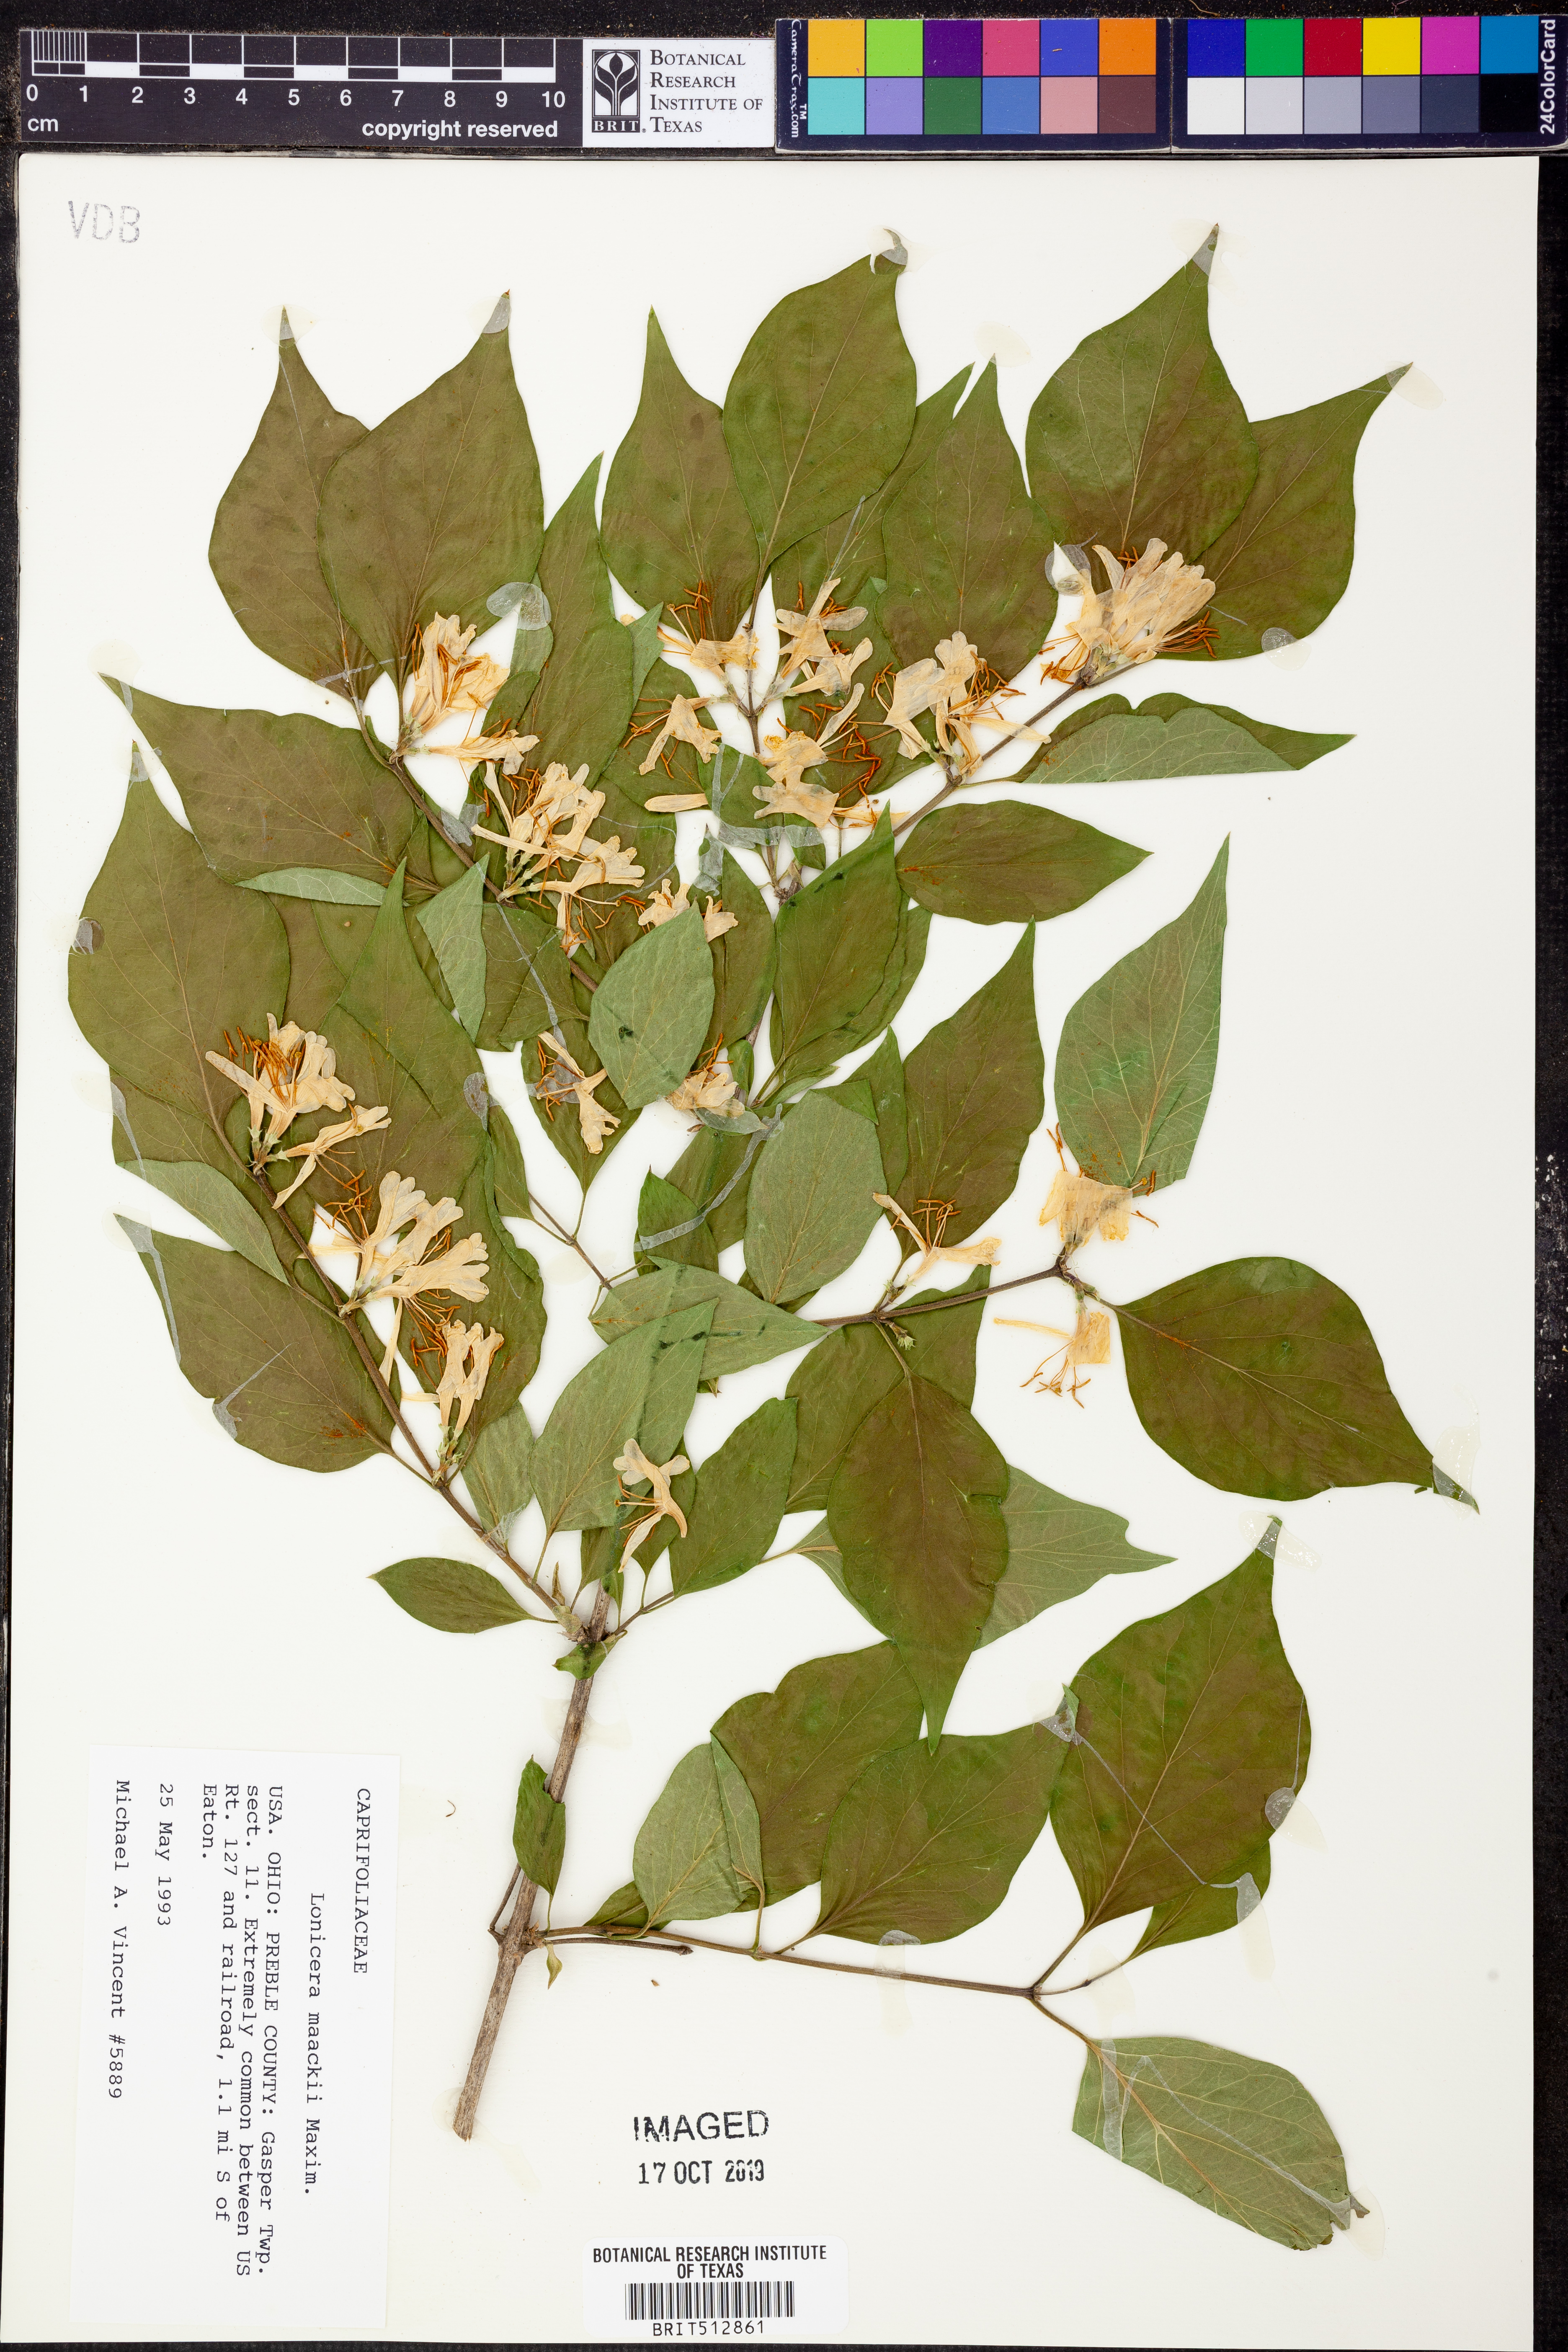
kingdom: Plantae
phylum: Tracheophyta
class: Magnoliopsida
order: Dipsacales
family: Caprifoliaceae
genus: Lonicera
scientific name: Lonicera maackii
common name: Amur honeysuckle
